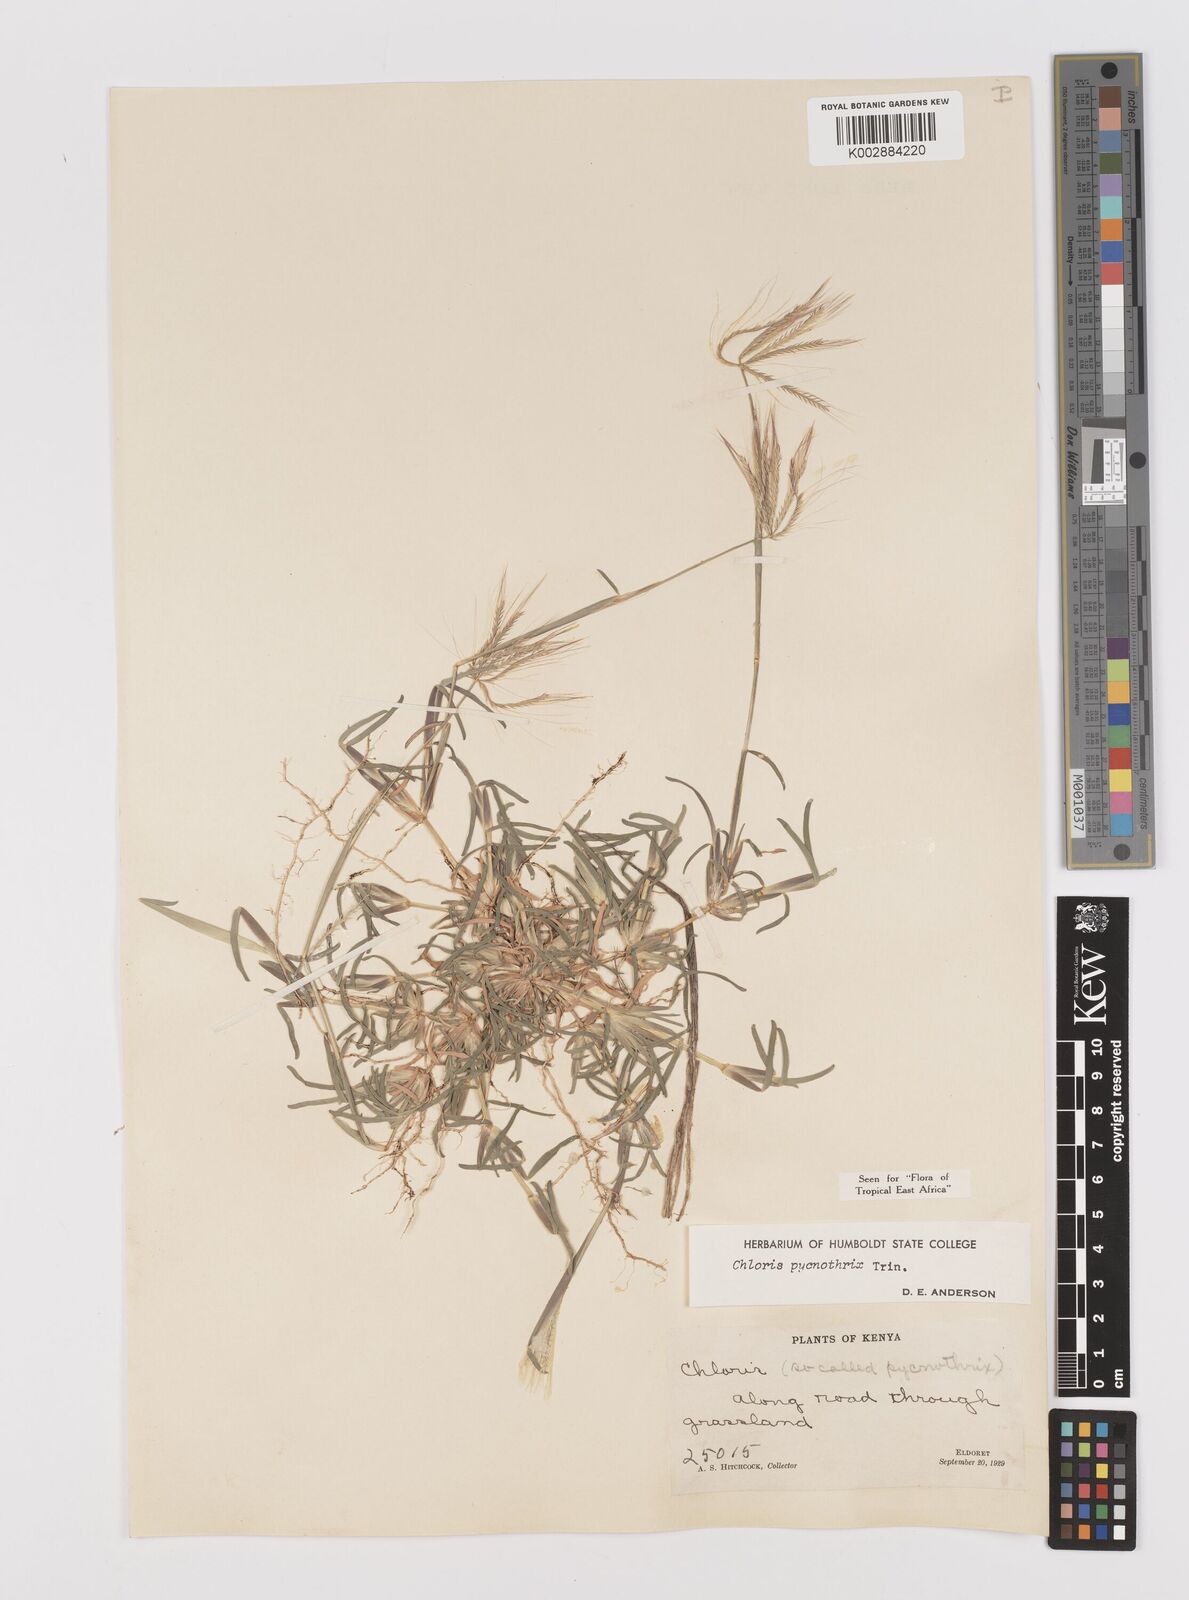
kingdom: Plantae
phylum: Tracheophyta
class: Liliopsida
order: Poales
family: Poaceae
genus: Chloris
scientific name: Chloris pycnothrix
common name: Spiderweb chloris
